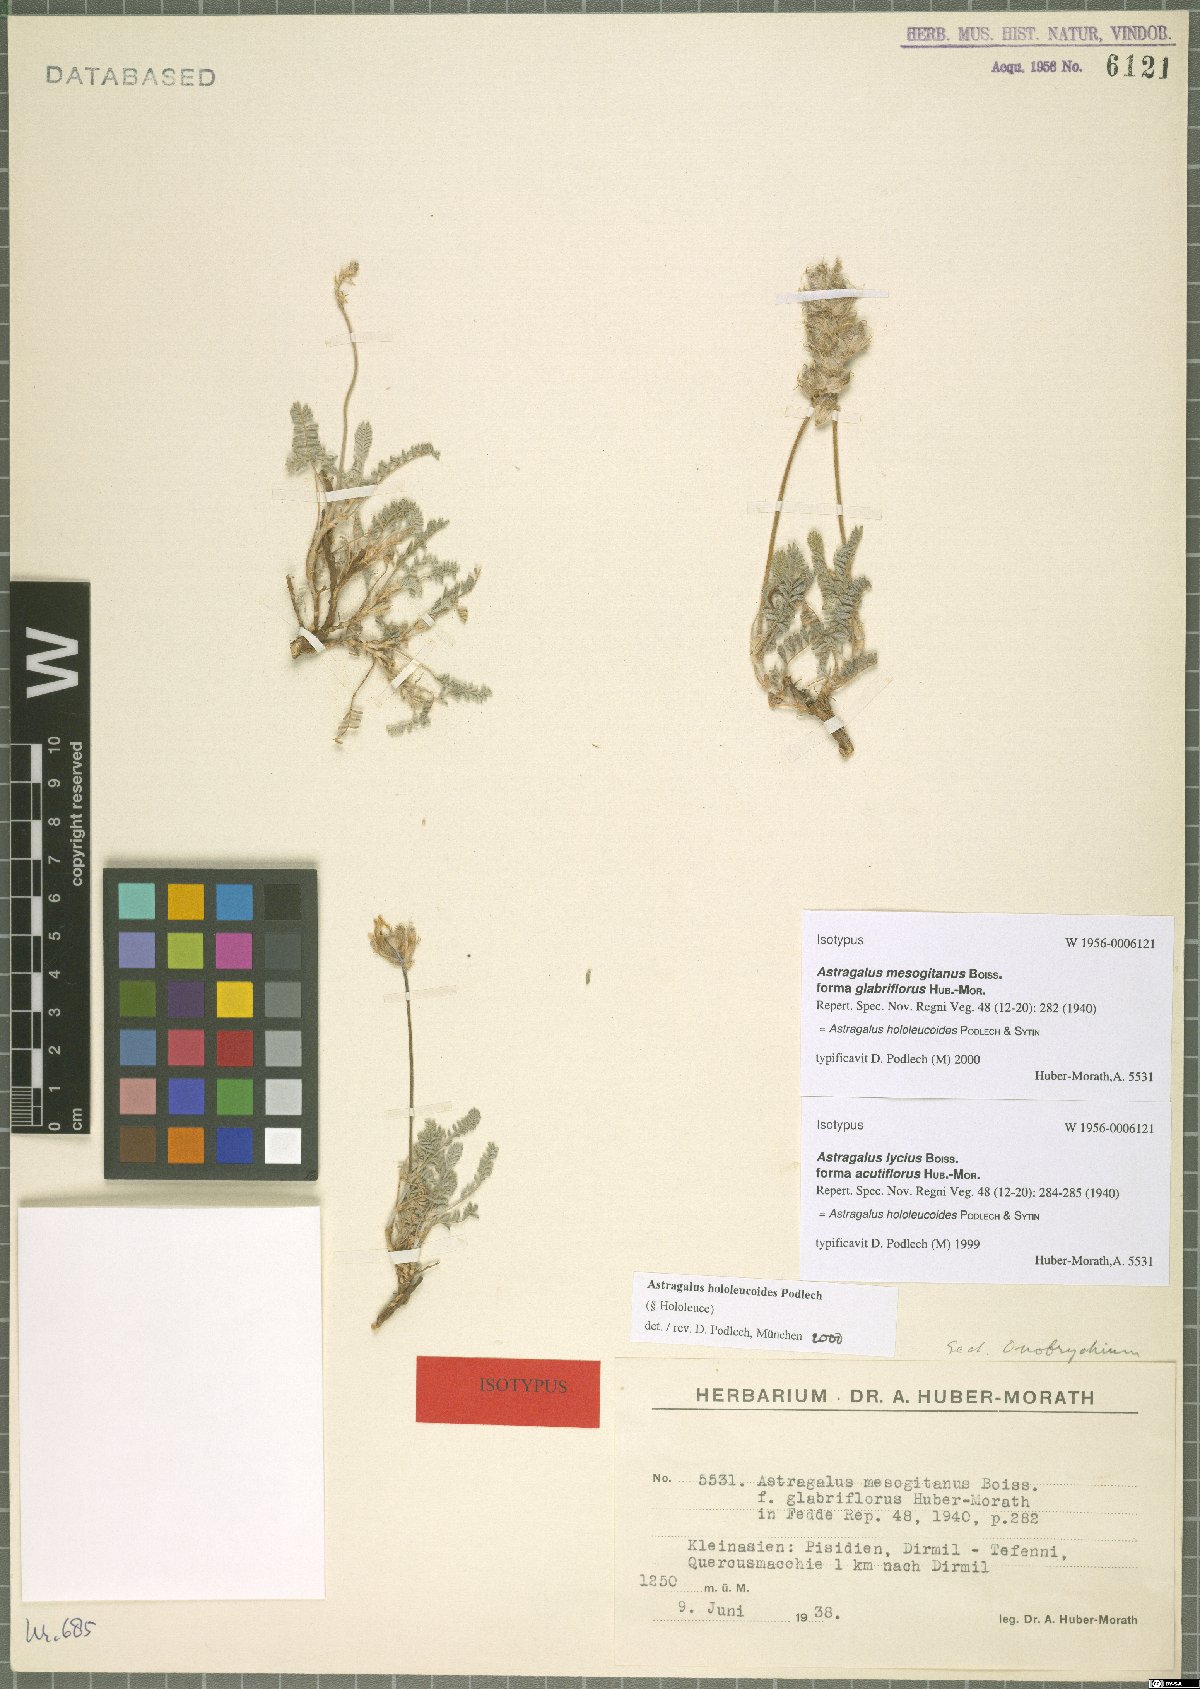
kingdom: Plantae
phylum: Tracheophyta
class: Magnoliopsida
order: Fabales
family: Fabaceae
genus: Astragalus
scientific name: Astragalus mesogitanus
